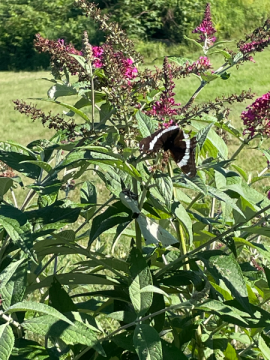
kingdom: Animalia
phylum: Arthropoda
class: Insecta
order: Lepidoptera
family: Nymphalidae
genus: Limenitis
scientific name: Limenitis arthemis
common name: Red-spotted Admiral
